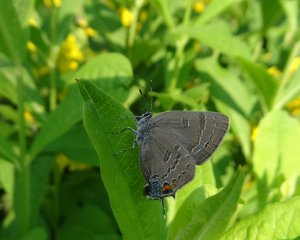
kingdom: Animalia
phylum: Arthropoda
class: Insecta
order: Lepidoptera
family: Lycaenidae
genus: Strymon
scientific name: Strymon caryaevorus
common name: Hickory Hairstreak
